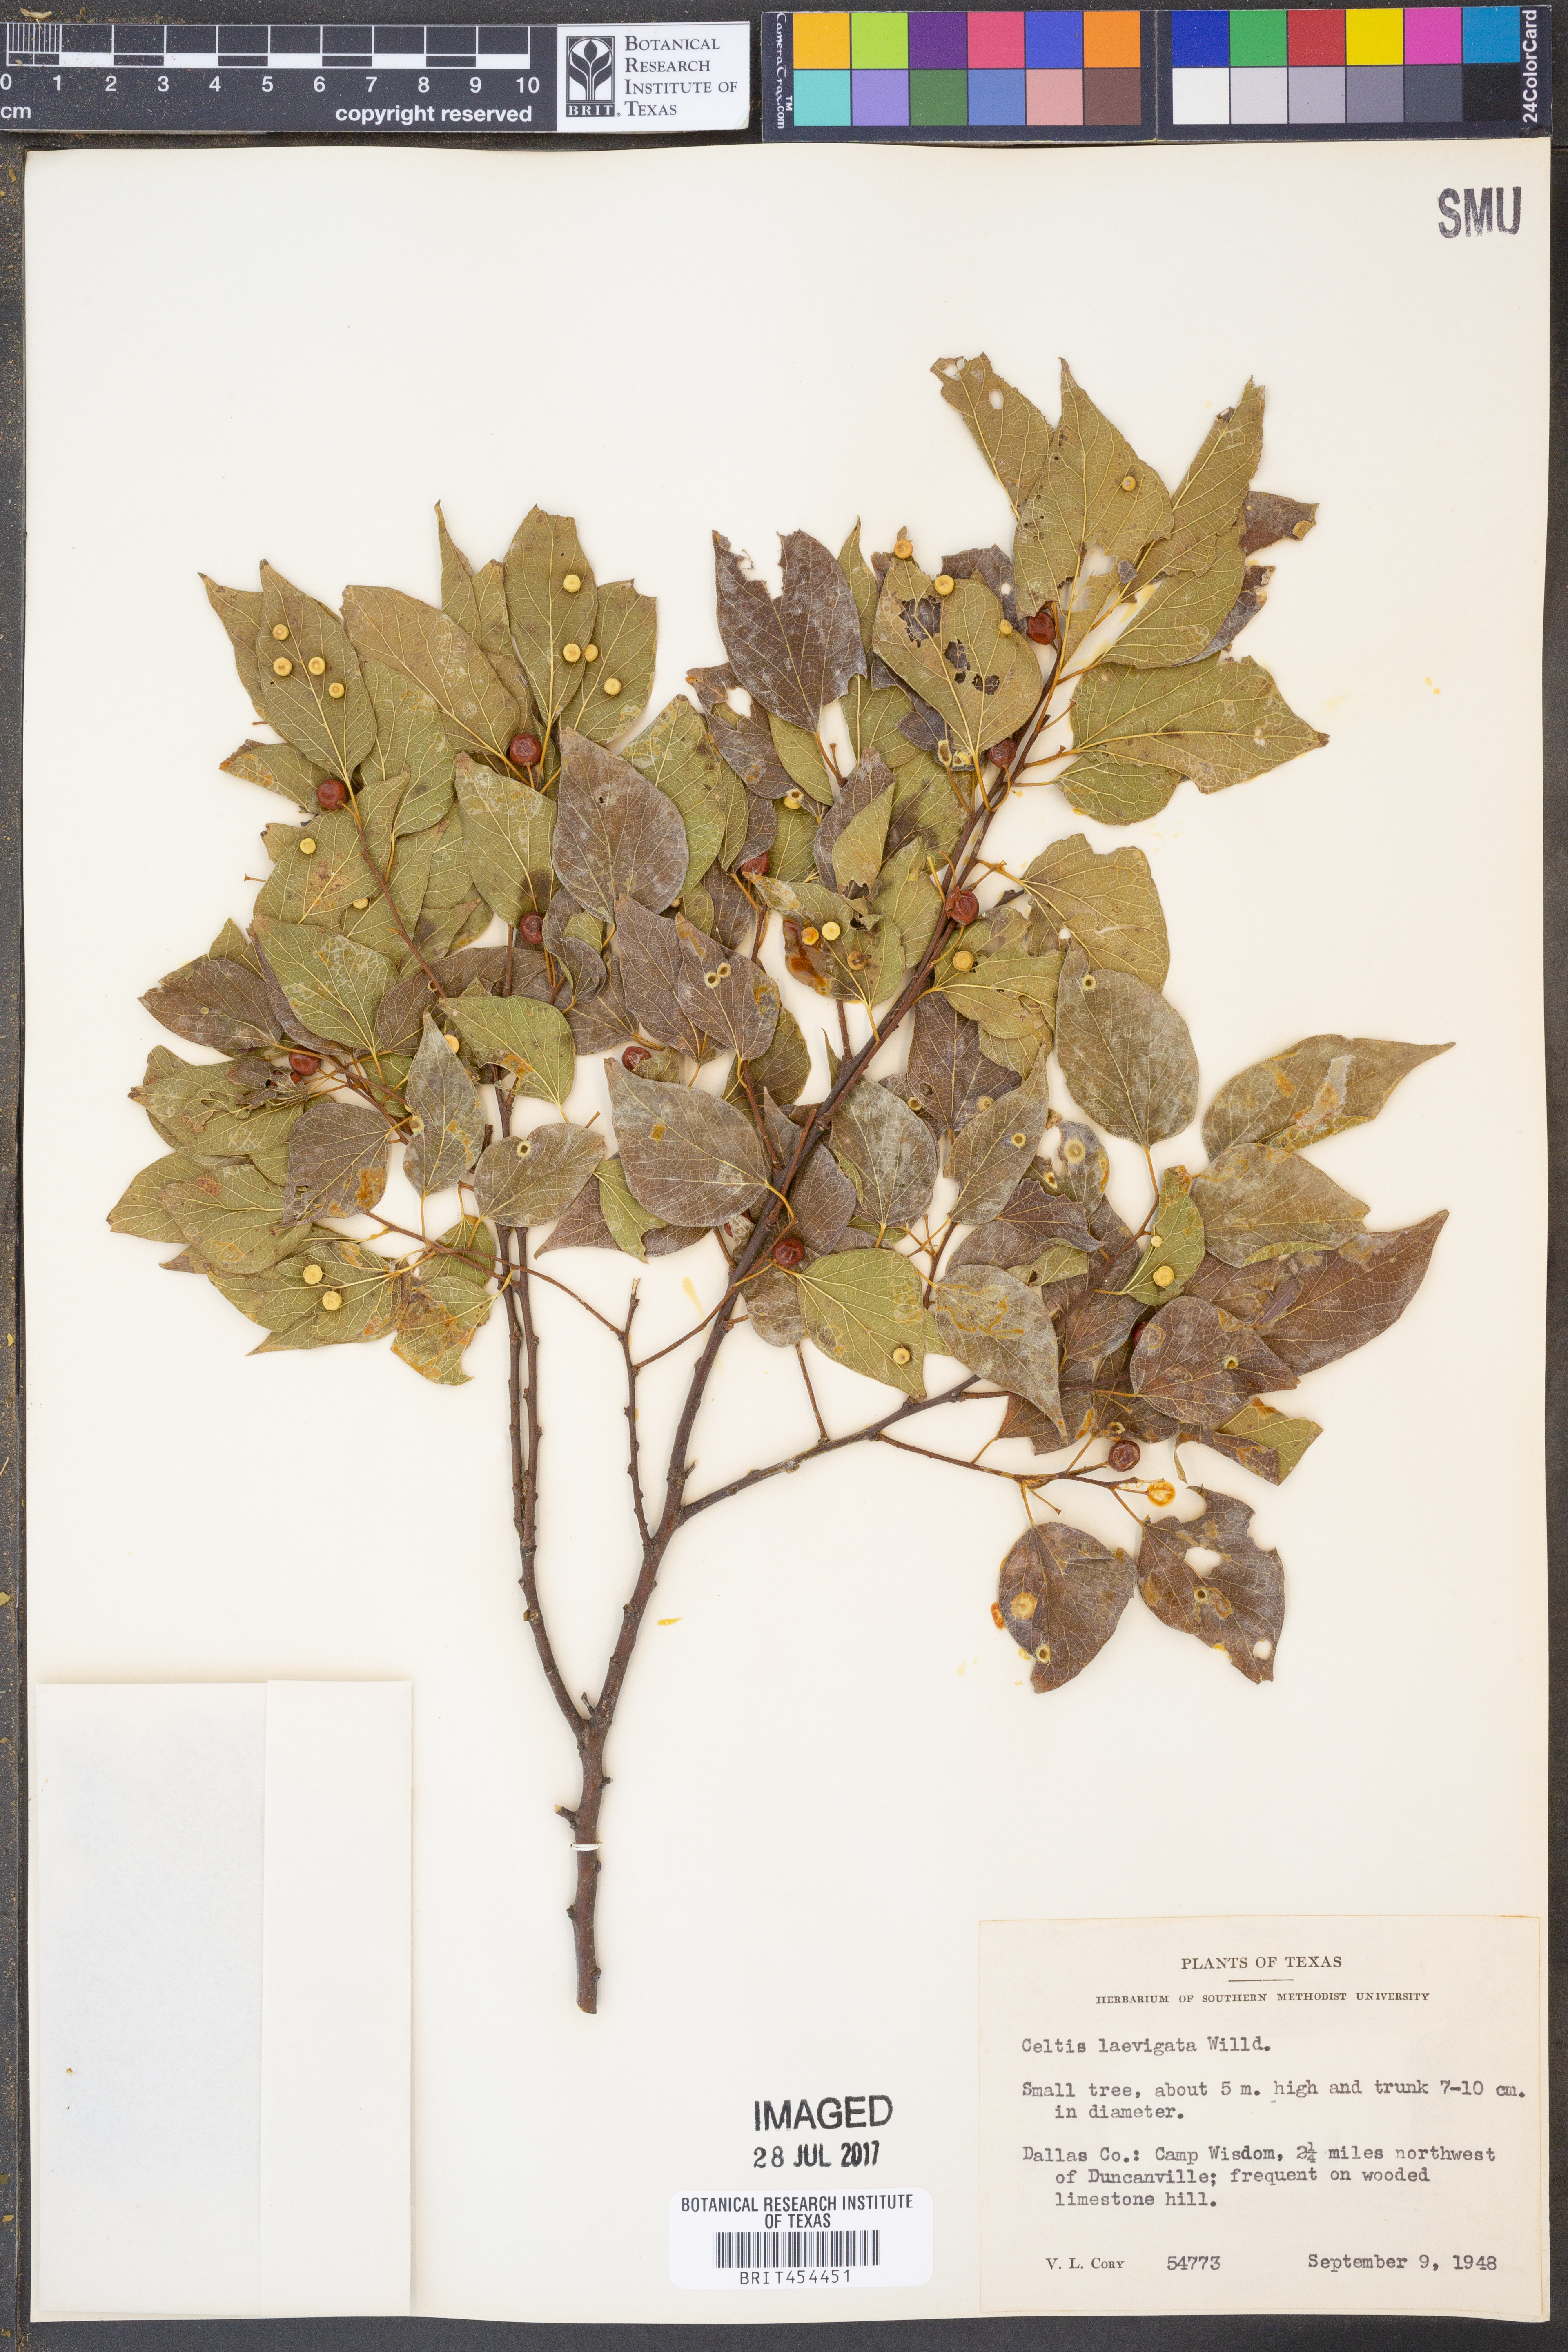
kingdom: Plantae
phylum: Tracheophyta
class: Magnoliopsida
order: Rosales
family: Cannabaceae
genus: Celtis
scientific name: Celtis laevigata
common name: Sugarberry
